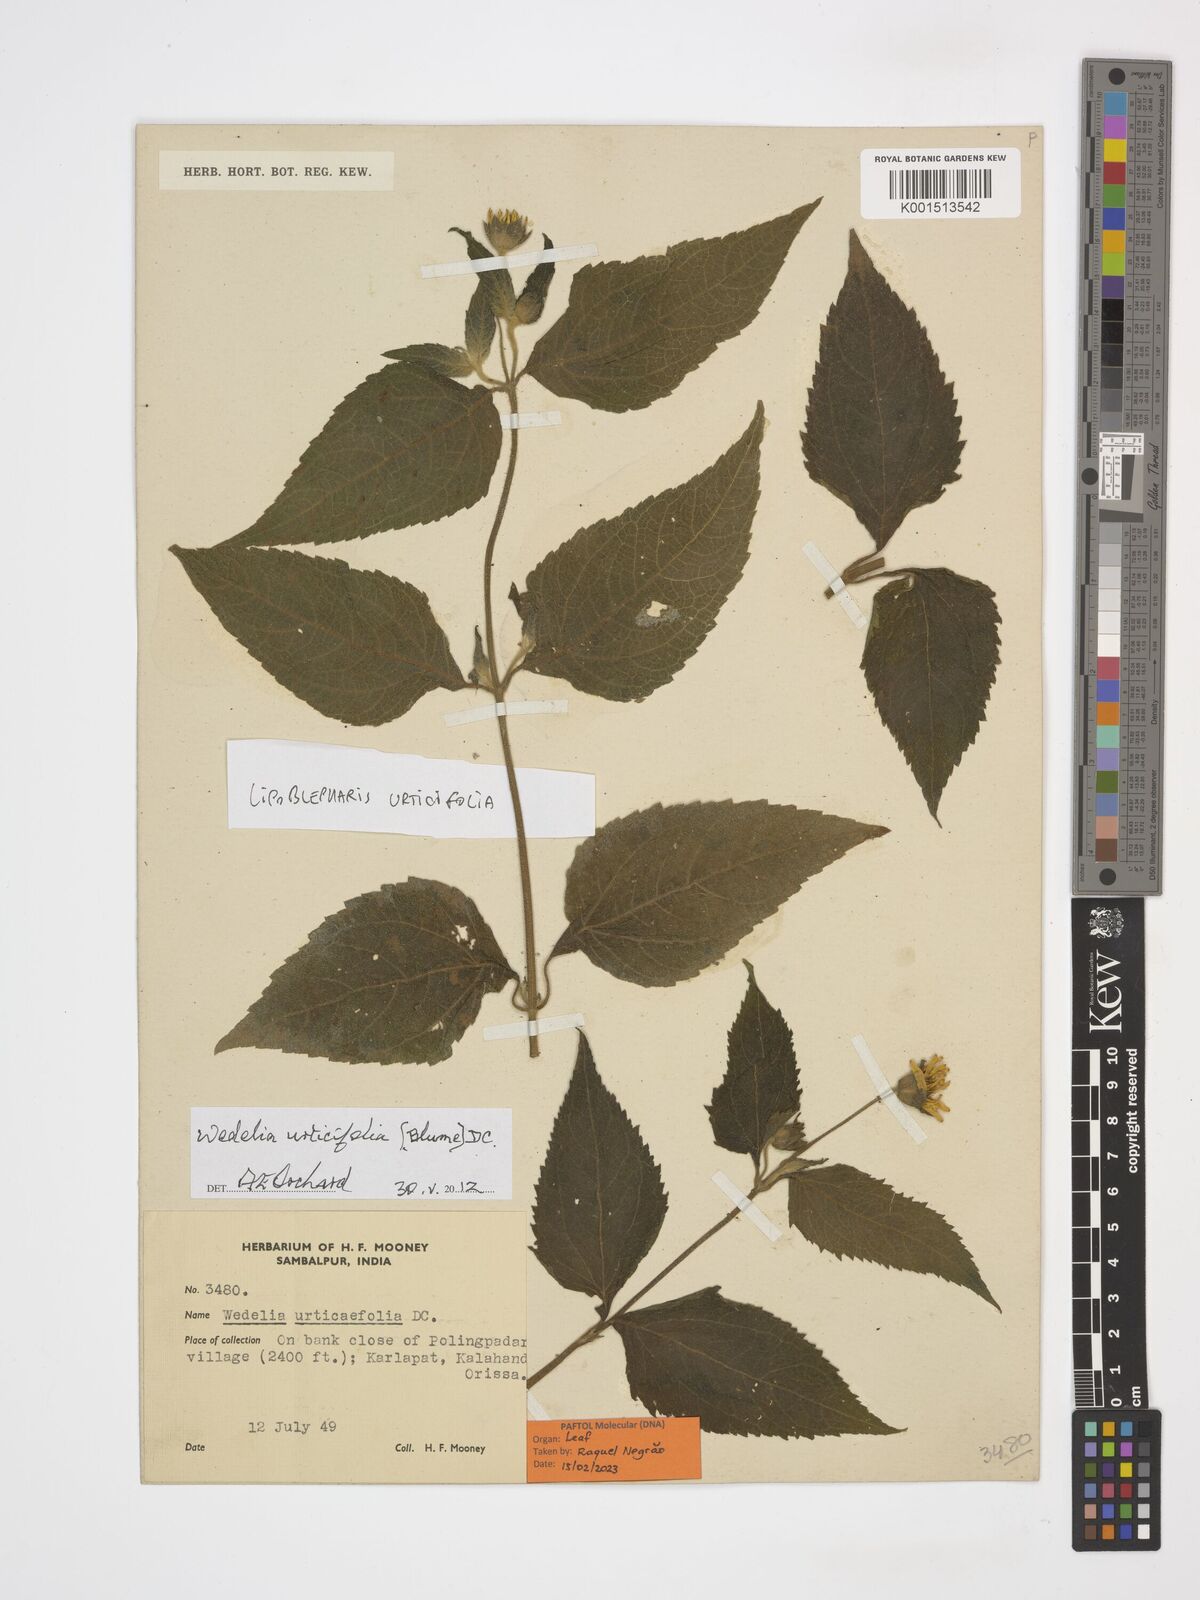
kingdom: Plantae
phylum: Tracheophyta
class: Magnoliopsida
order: Asterales
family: Asteraceae
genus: Lipoblepharis
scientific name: Lipoblepharis urticifolia
